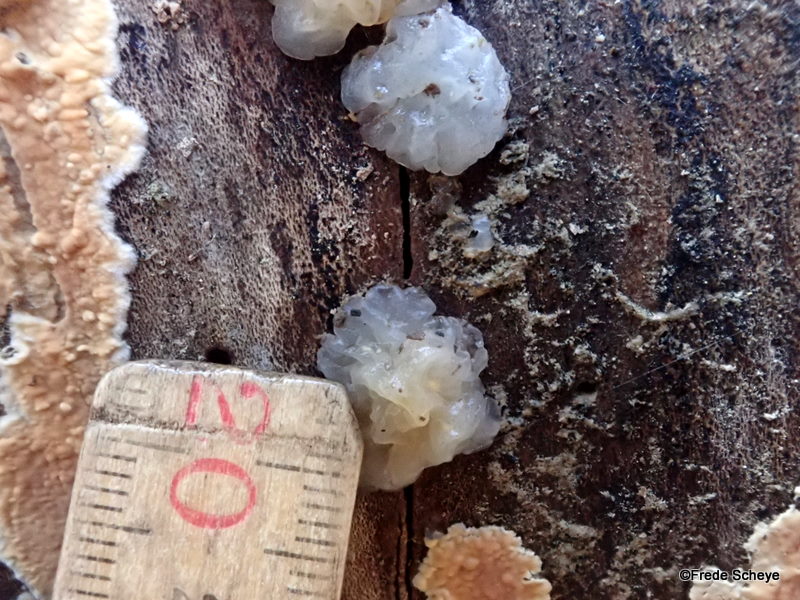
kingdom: Fungi
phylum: Basidiomycota
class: Agaricomycetes
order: Auriculariales
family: Hyaloriaceae
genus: Myxarium
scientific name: Myxarium nucleatum
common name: klar bævretop
